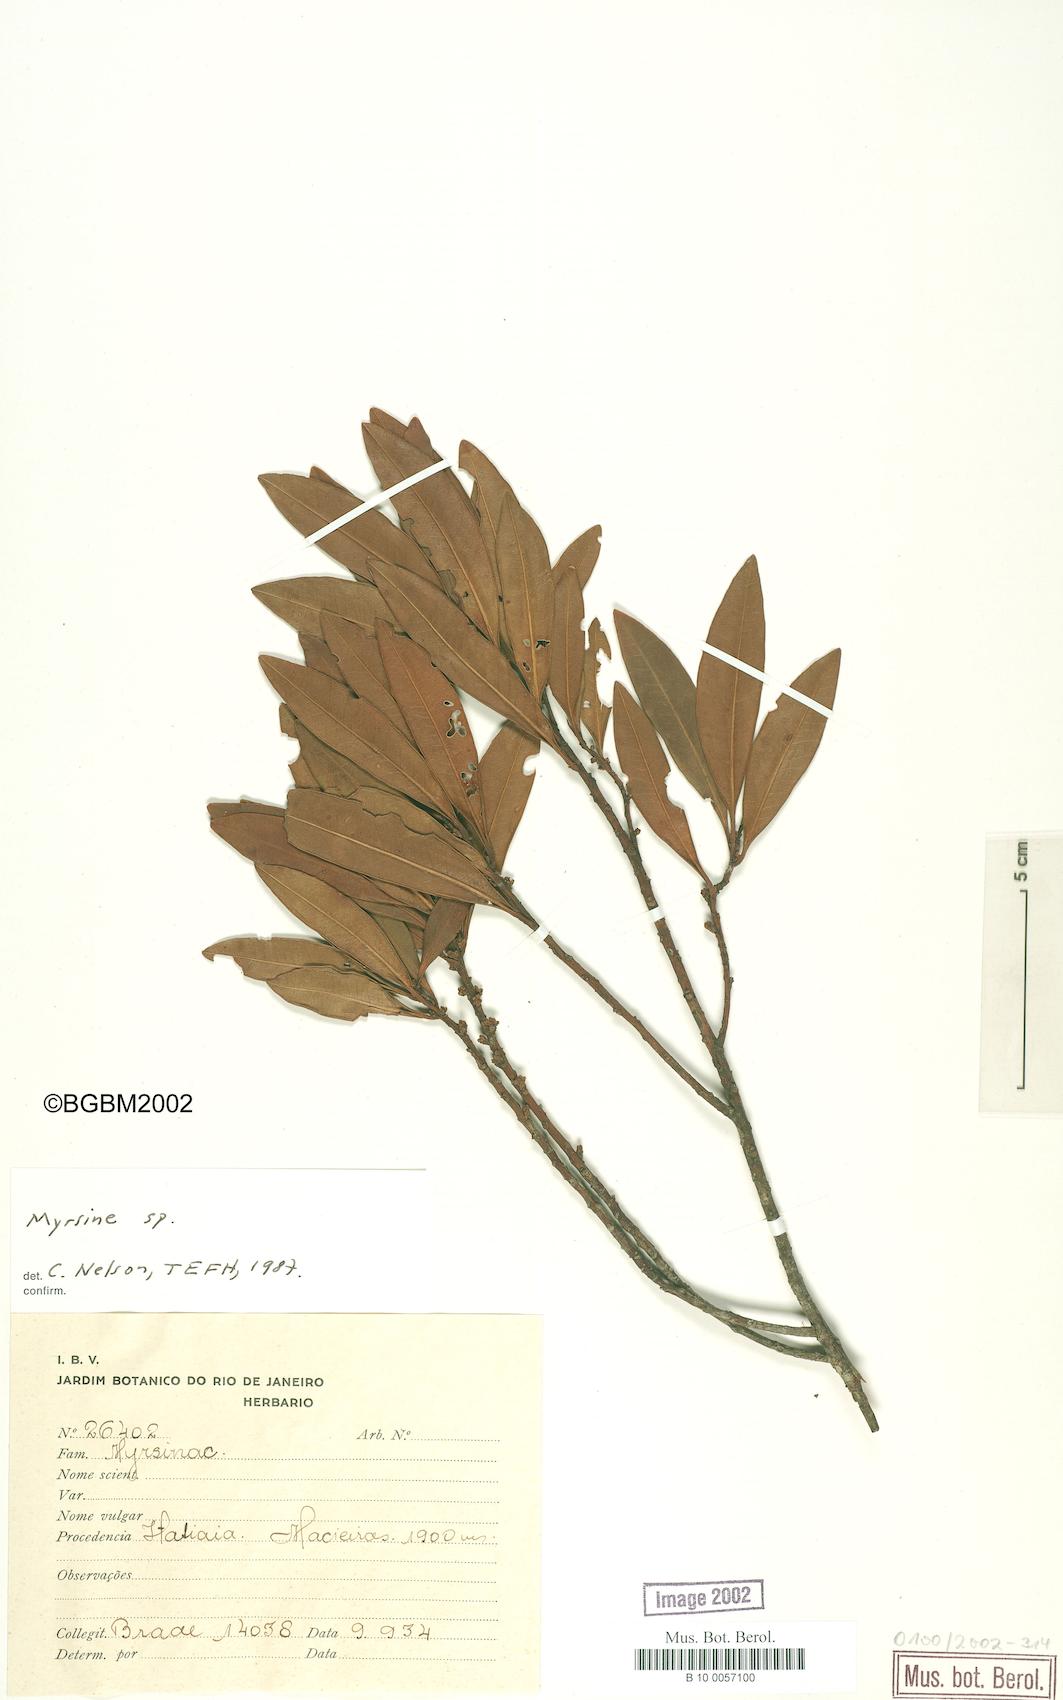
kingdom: Plantae
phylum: Tracheophyta
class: Magnoliopsida
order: Ericales
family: Primulaceae
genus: Myrsine
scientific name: Myrsine
